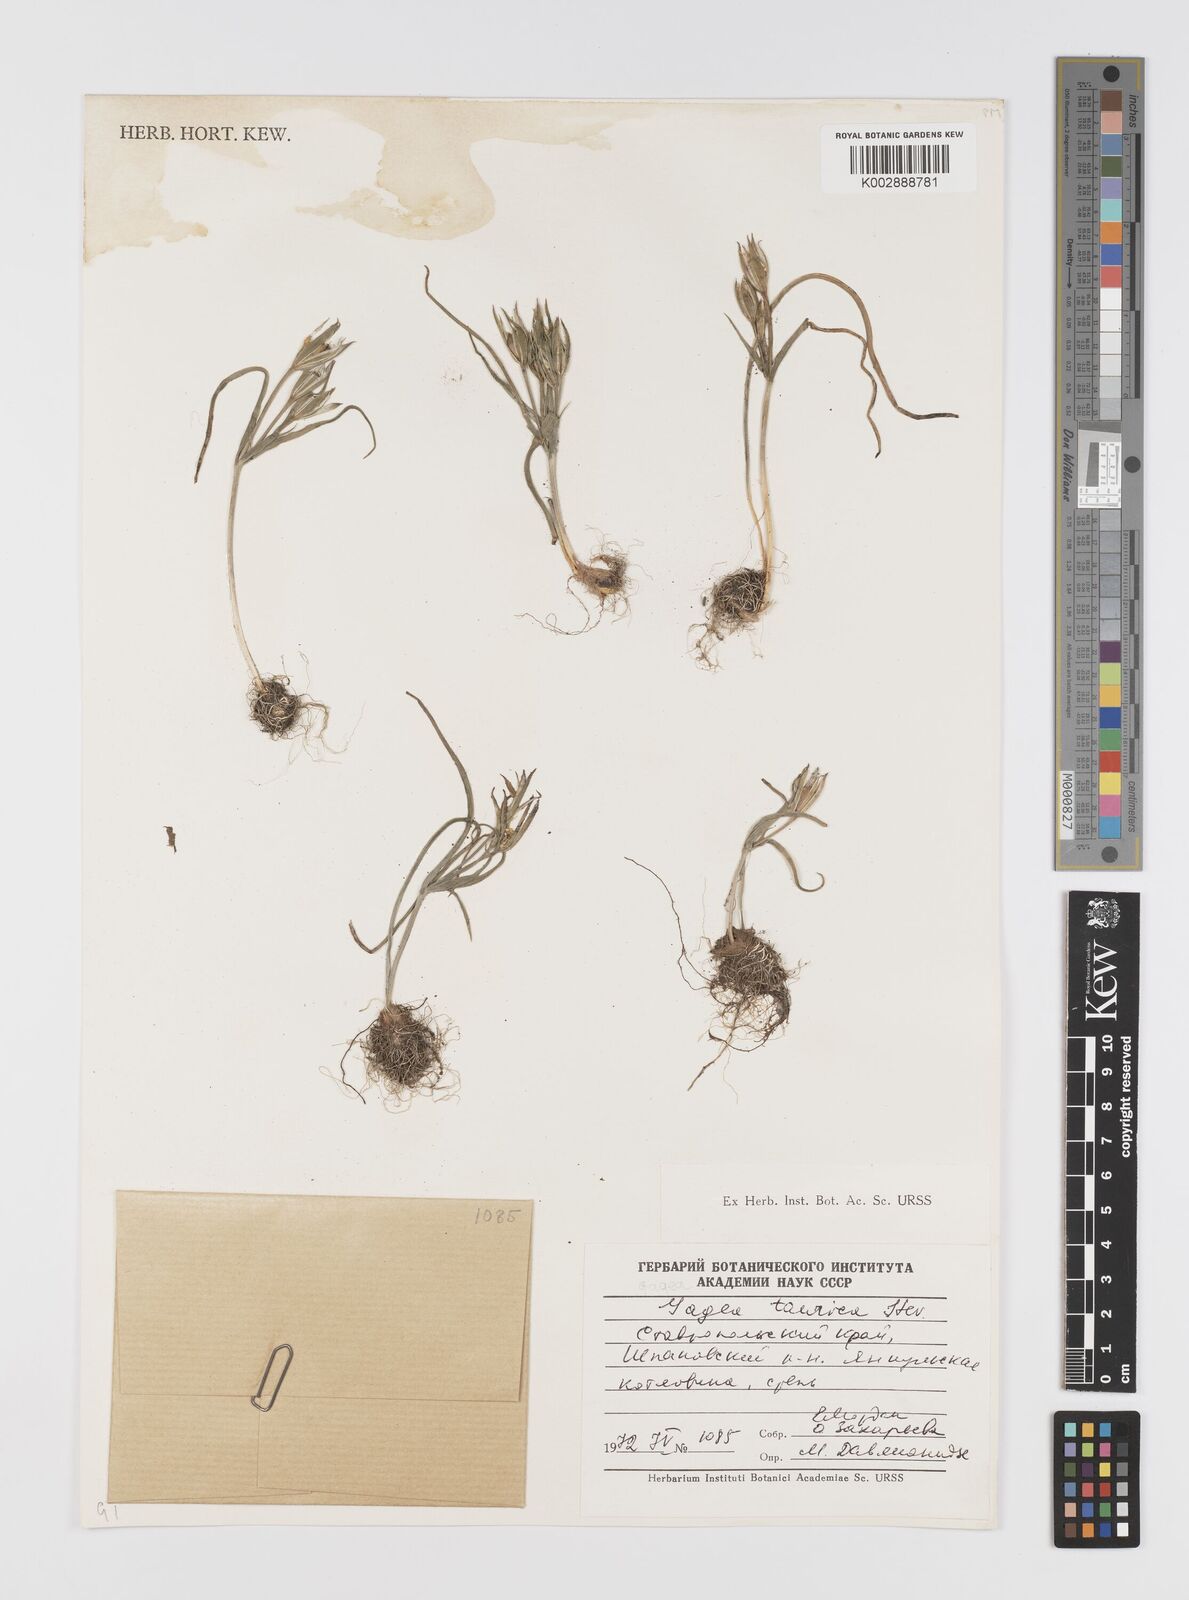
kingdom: Plantae
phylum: Tracheophyta
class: Liliopsida
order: Liliales
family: Liliaceae
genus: Gagea
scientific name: Gagea taurica
